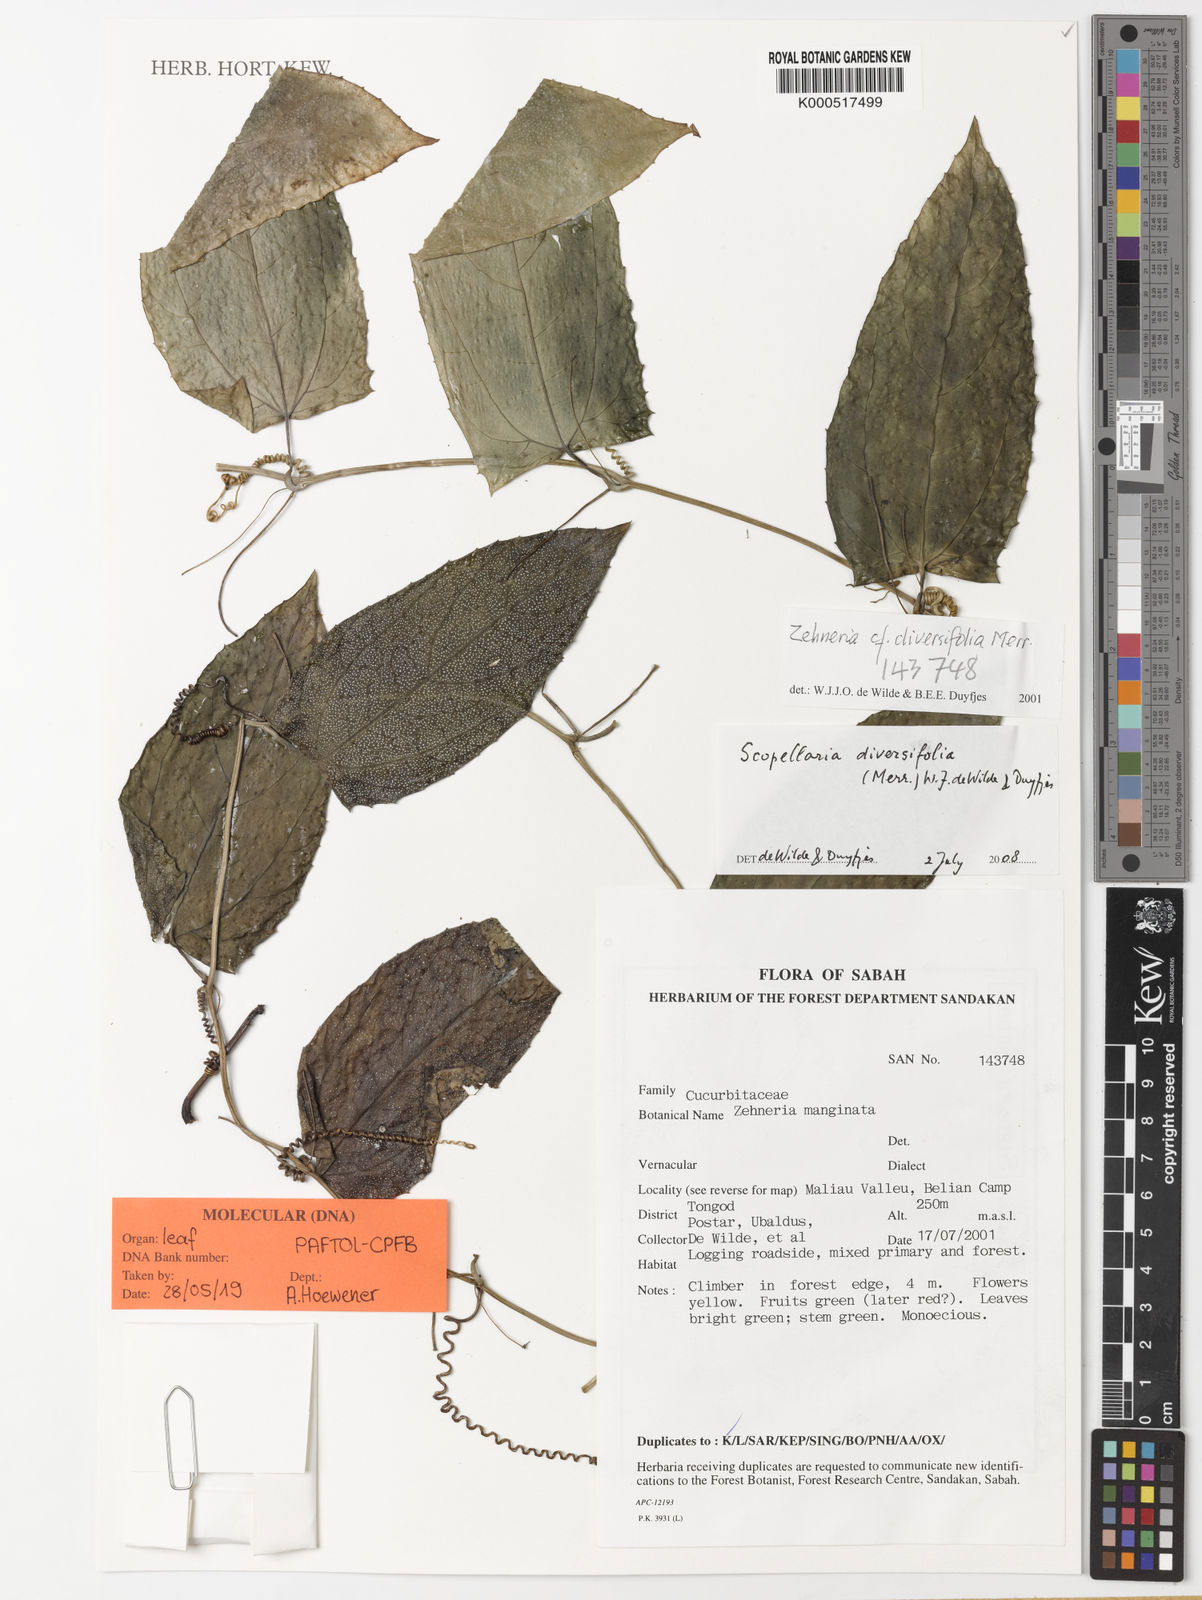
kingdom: Plantae
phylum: Tracheophyta
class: Magnoliopsida
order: Cucurbitales
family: Cucurbitaceae
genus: Scopellaria
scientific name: Scopellaria diversifolia
